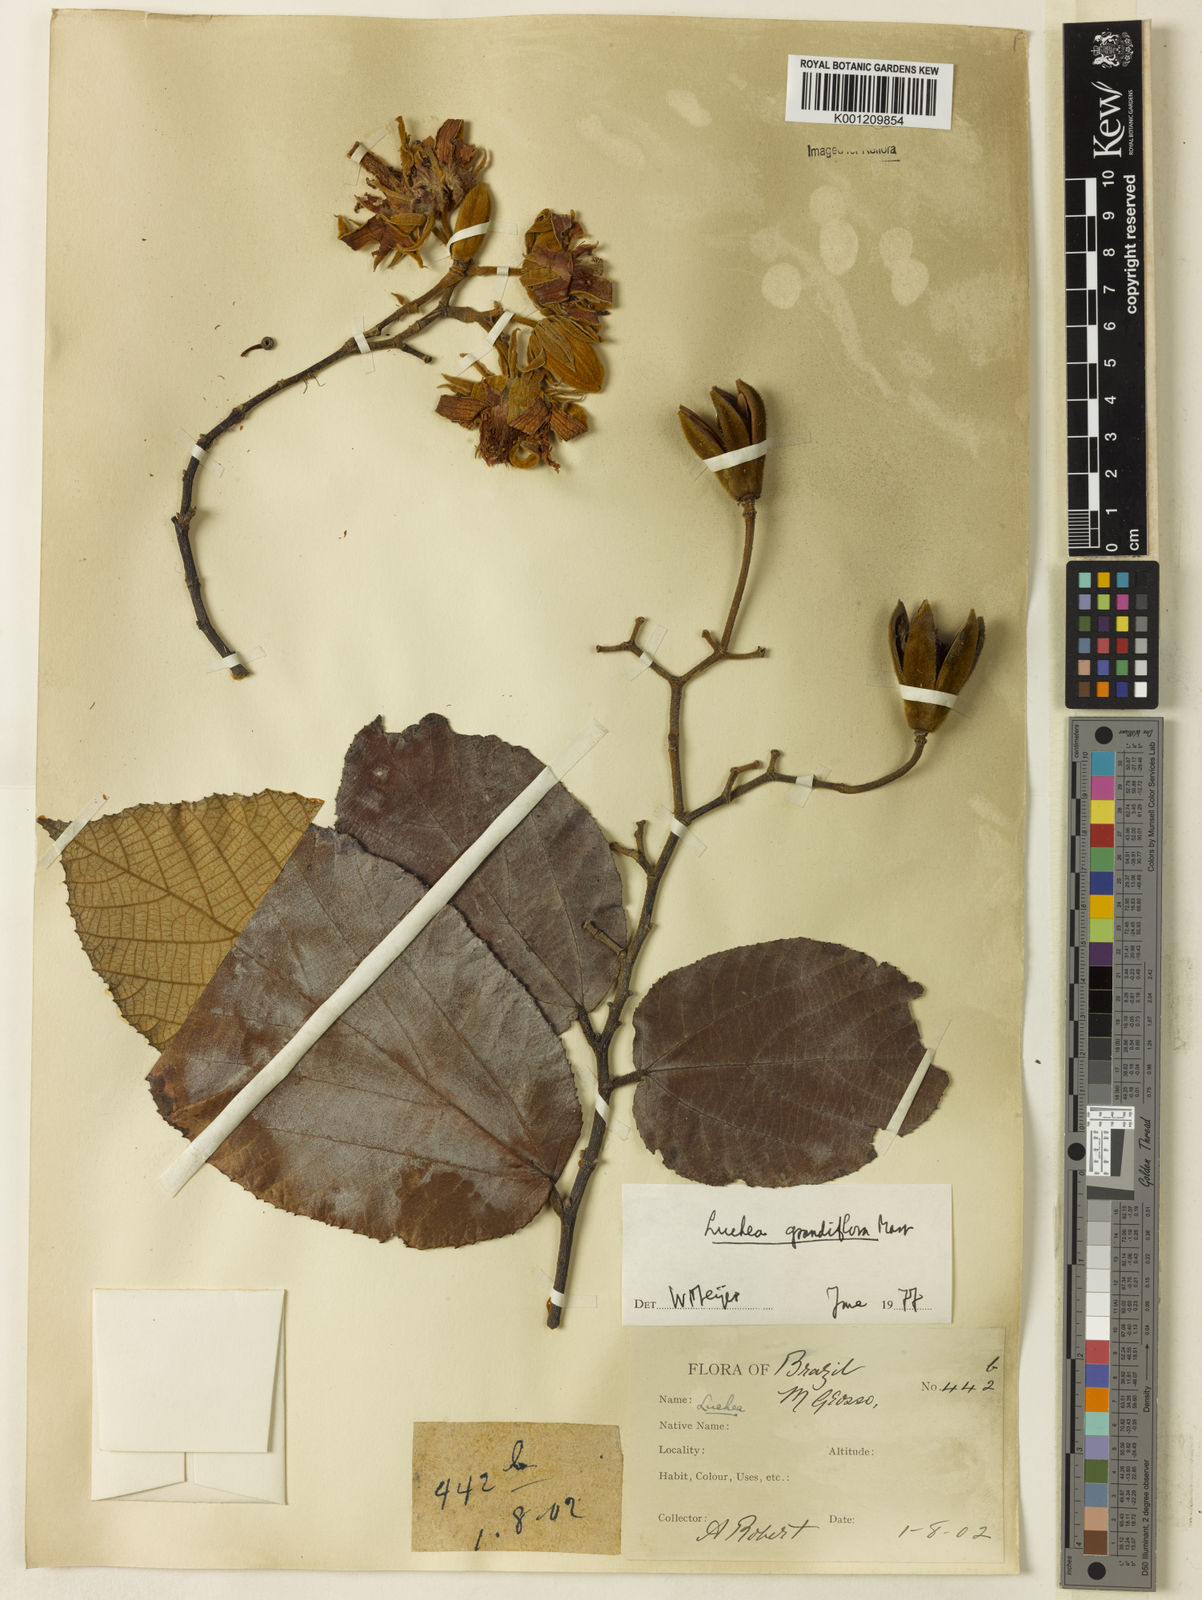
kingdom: Plantae
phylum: Tracheophyta
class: Magnoliopsida
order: Malvales
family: Malvaceae
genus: Luehea
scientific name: Luehea grandiflora
